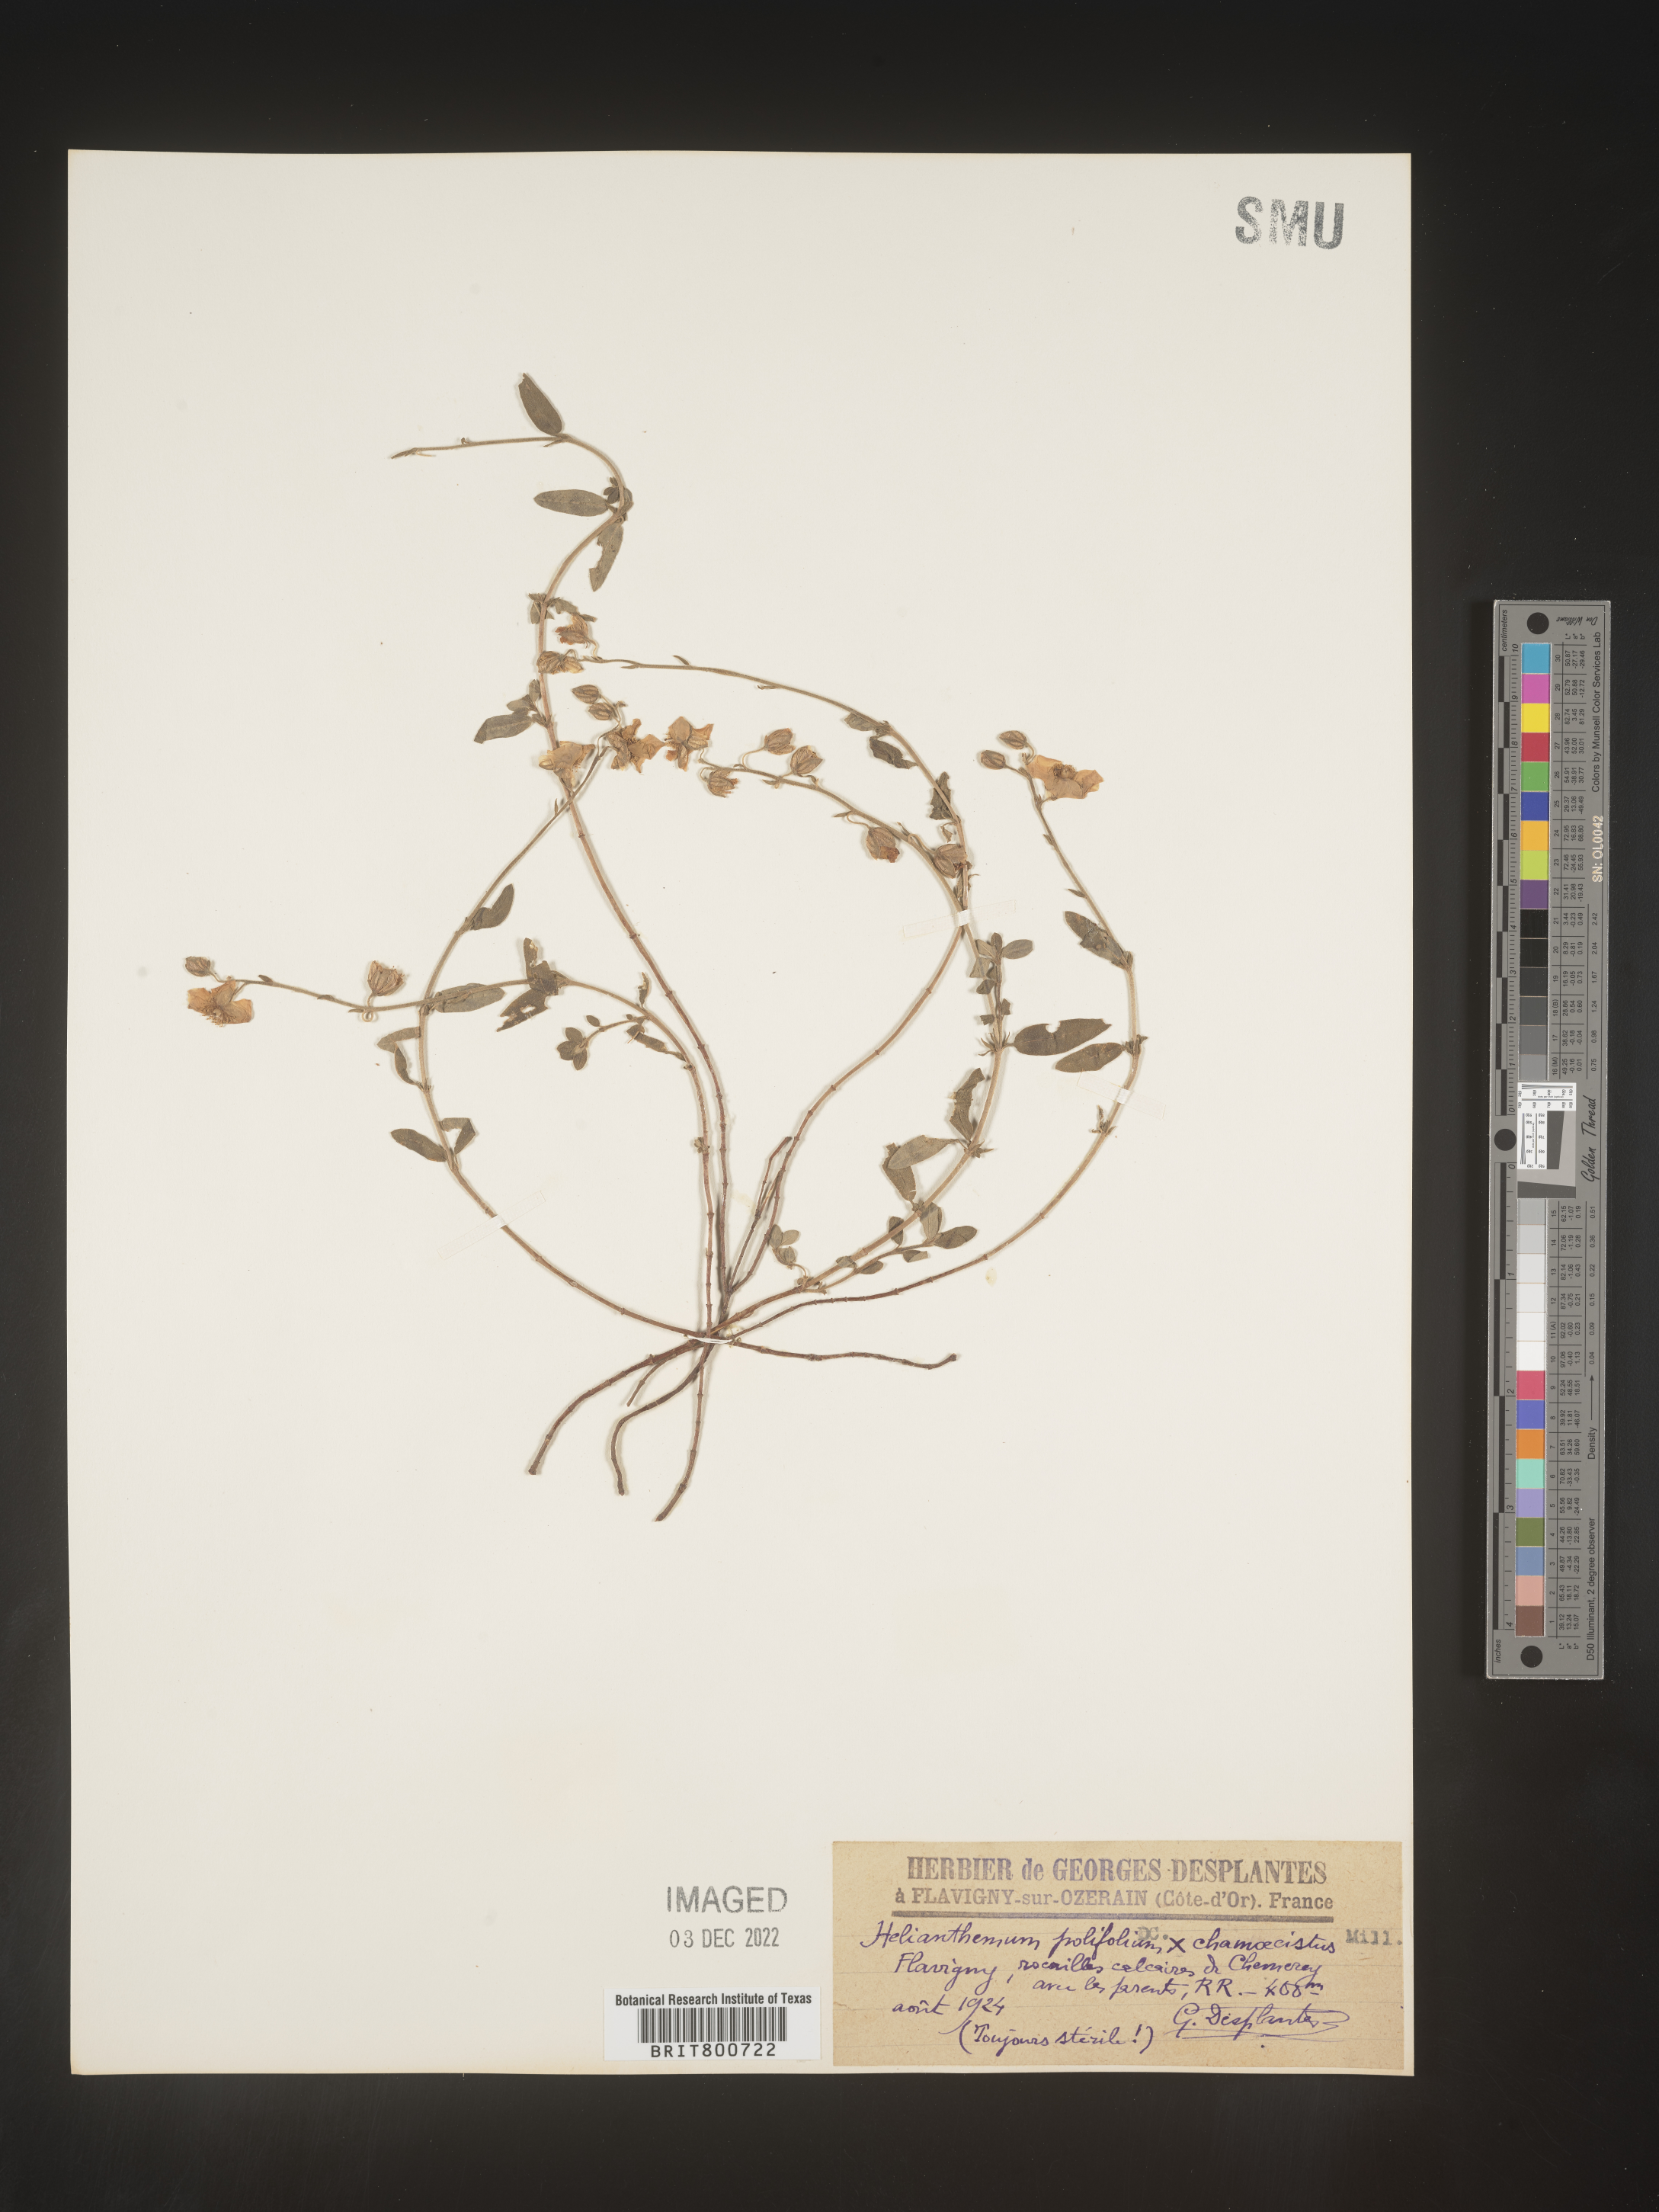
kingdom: Plantae
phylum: Tracheophyta
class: Magnoliopsida
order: Malvales
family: Cistaceae
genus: Helianthemum
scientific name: Helianthemum
